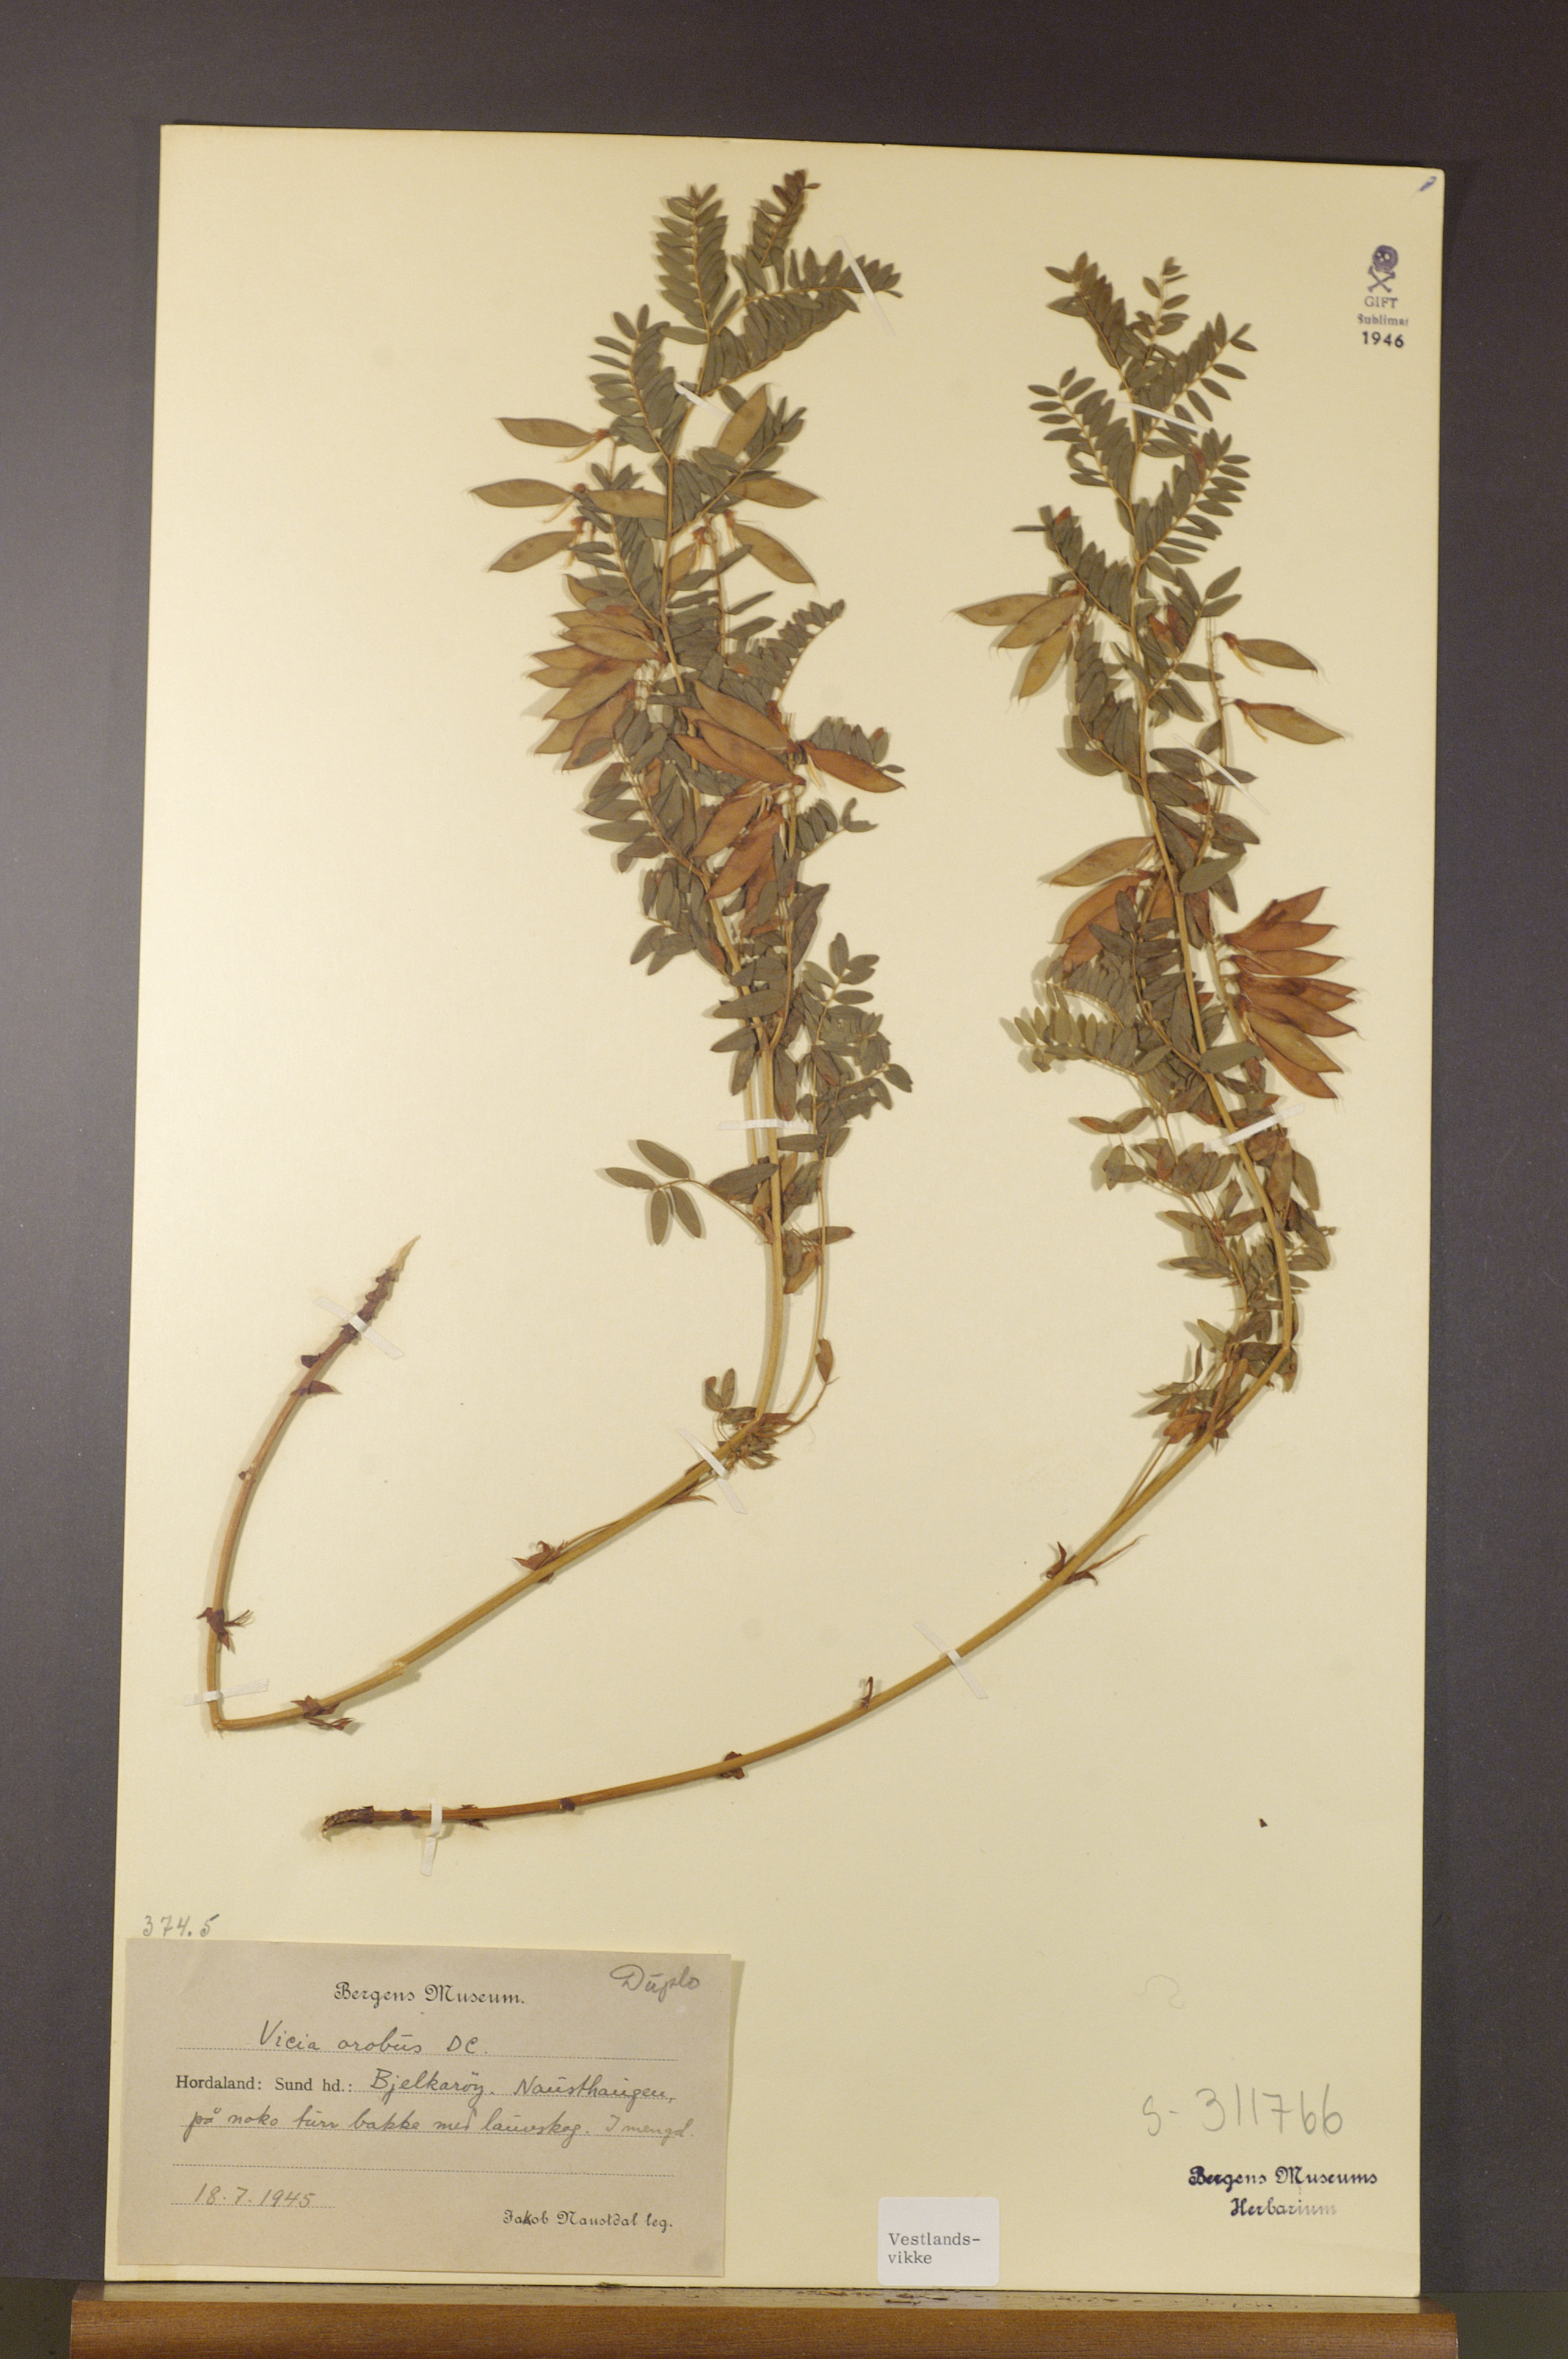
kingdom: Plantae
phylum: Tracheophyta
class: Magnoliopsida
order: Fabales
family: Fabaceae
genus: Vicia
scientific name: Vicia orobus
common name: Wood bitter-vetch
